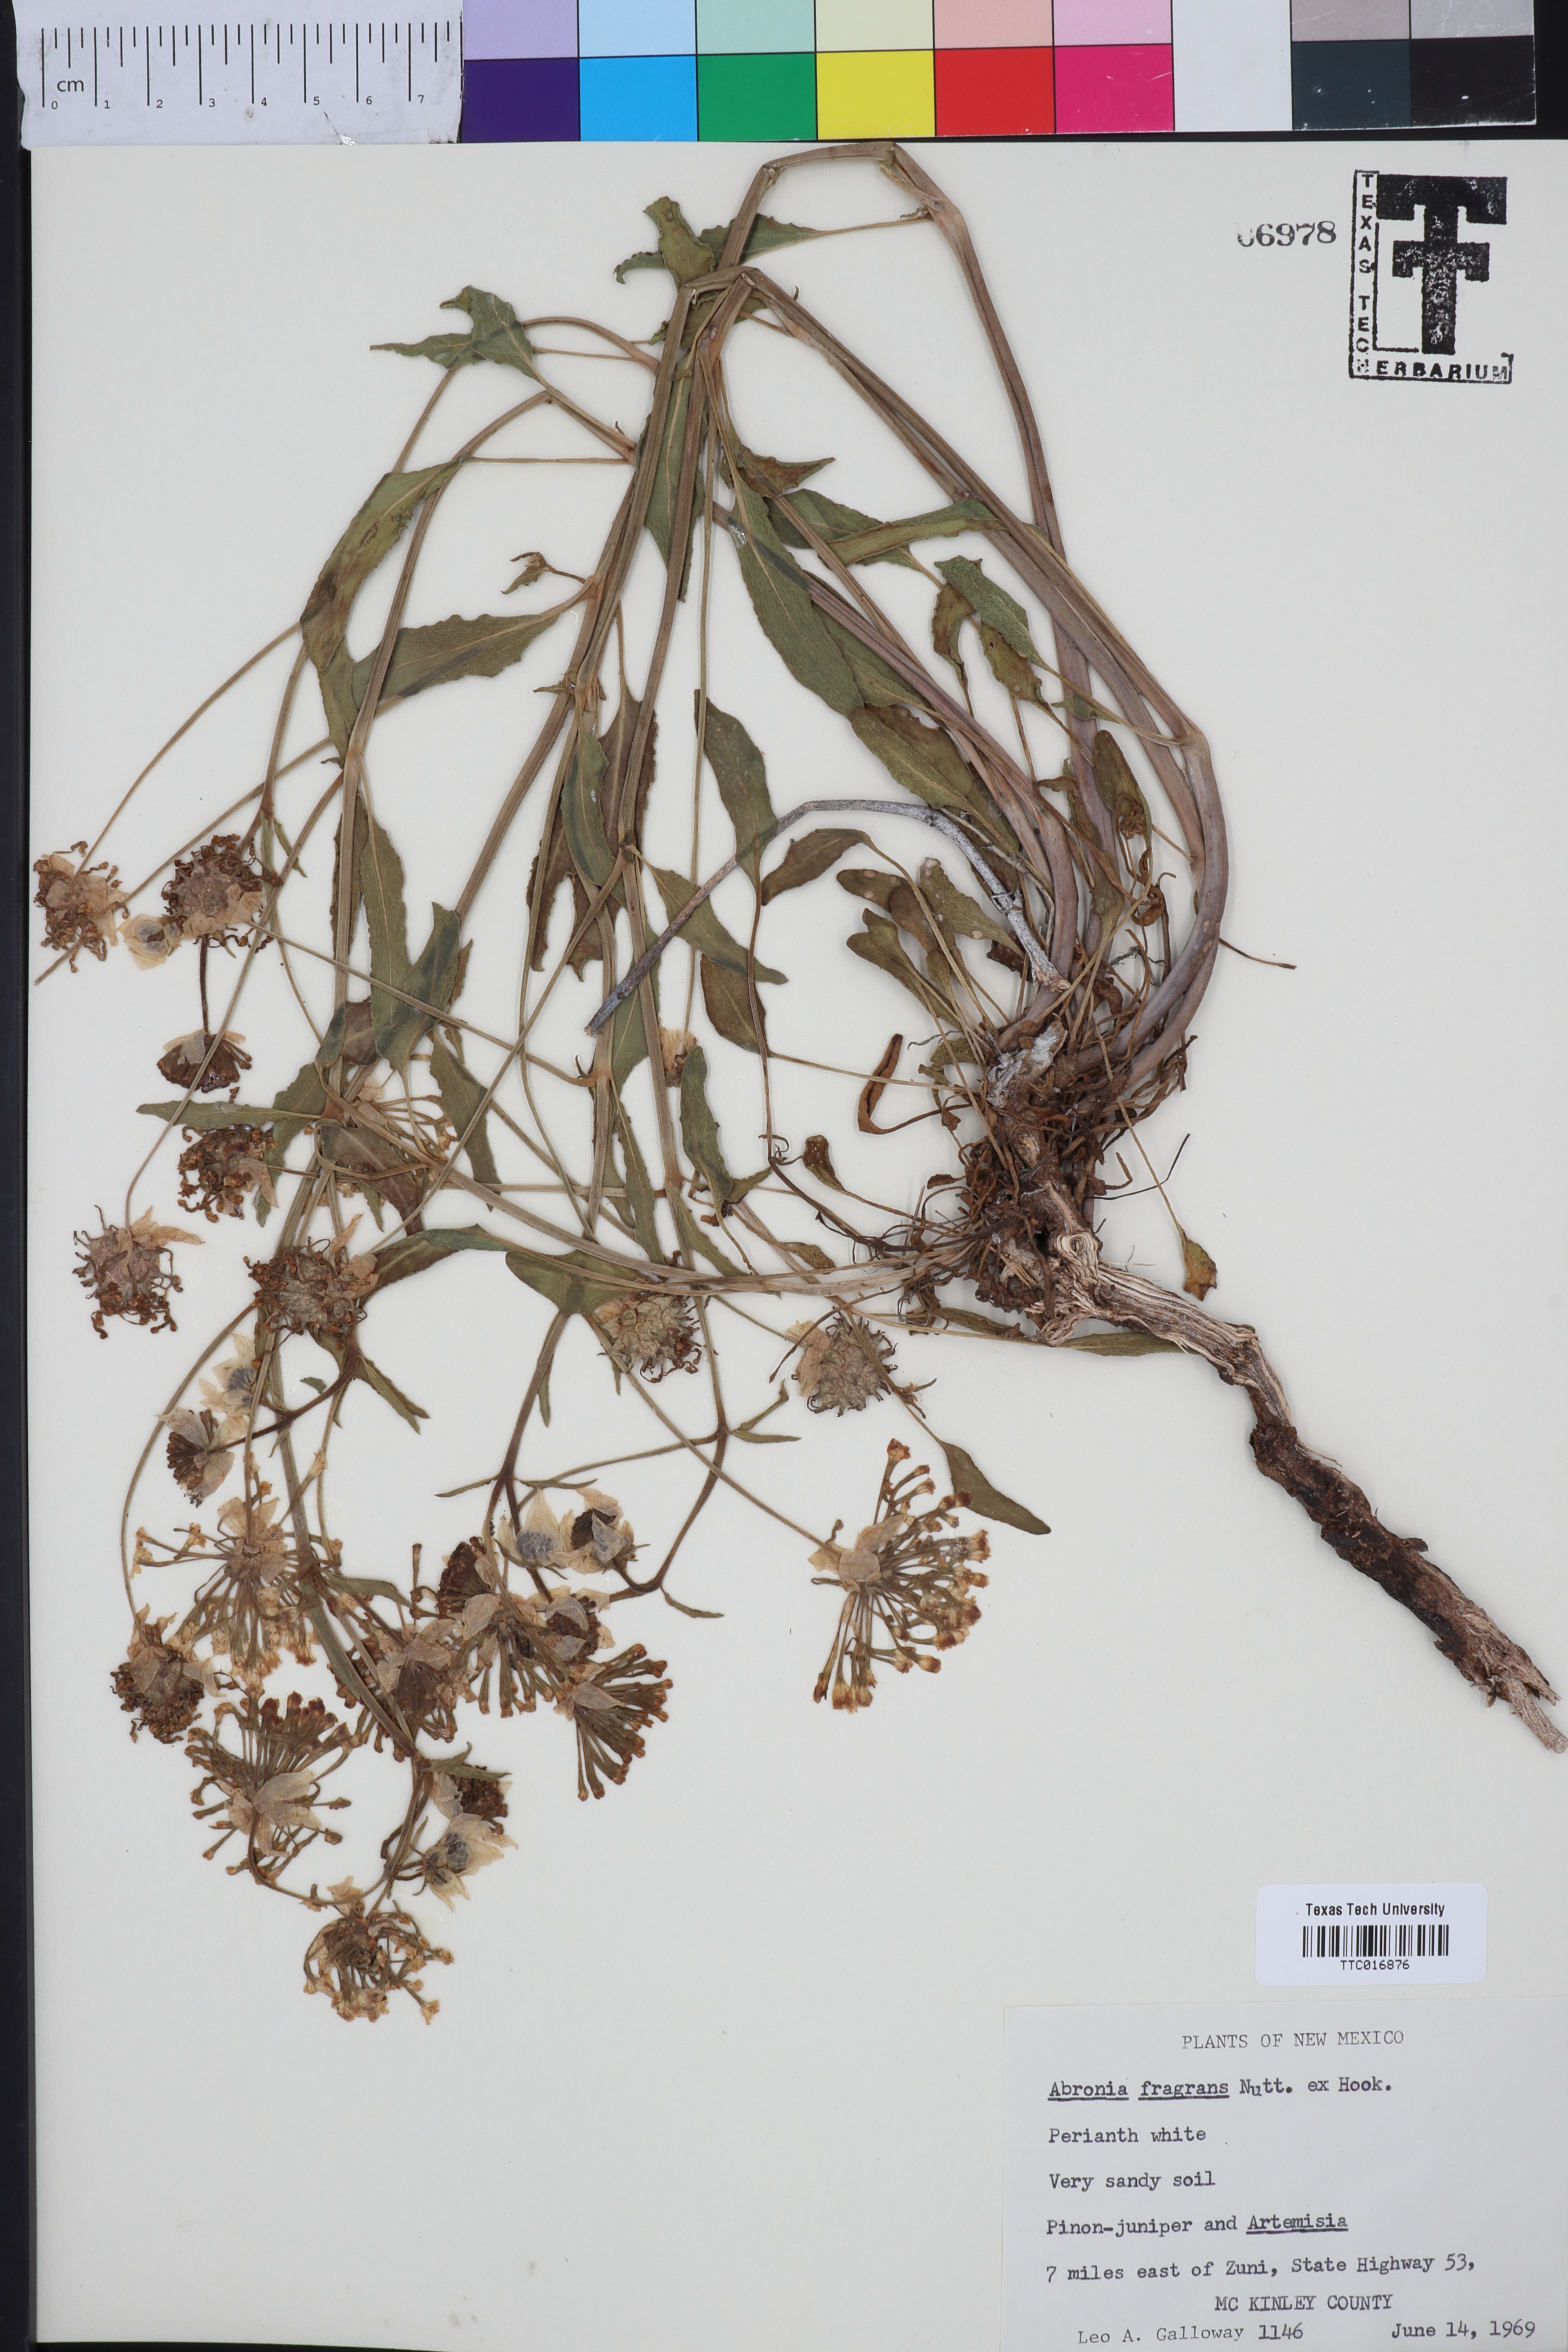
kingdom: Plantae
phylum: Tracheophyta
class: Magnoliopsida
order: Caryophyllales
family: Nyctaginaceae
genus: Abronia
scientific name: Abronia fragrans
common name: Fragrant sand-verbena
